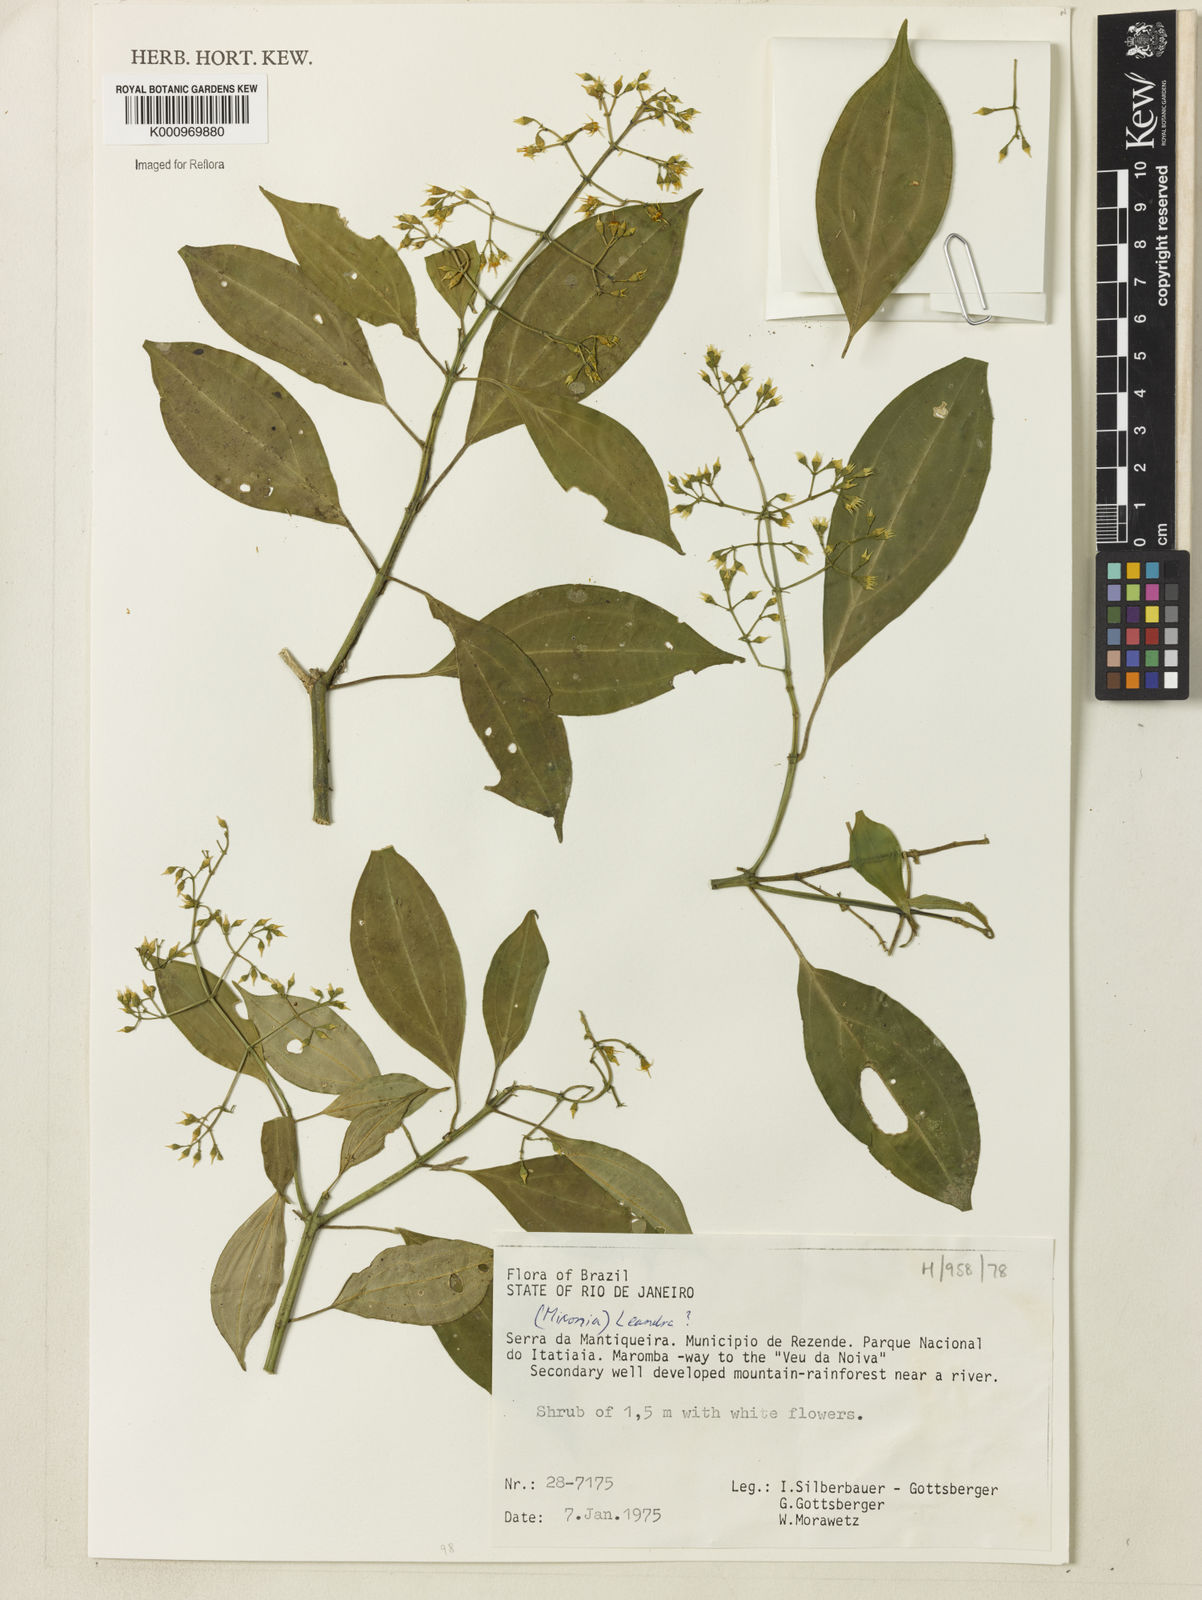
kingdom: Plantae
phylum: Tracheophyta
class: Magnoliopsida
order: Myrtales
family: Melastomataceae
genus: Miconia
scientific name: Miconia
